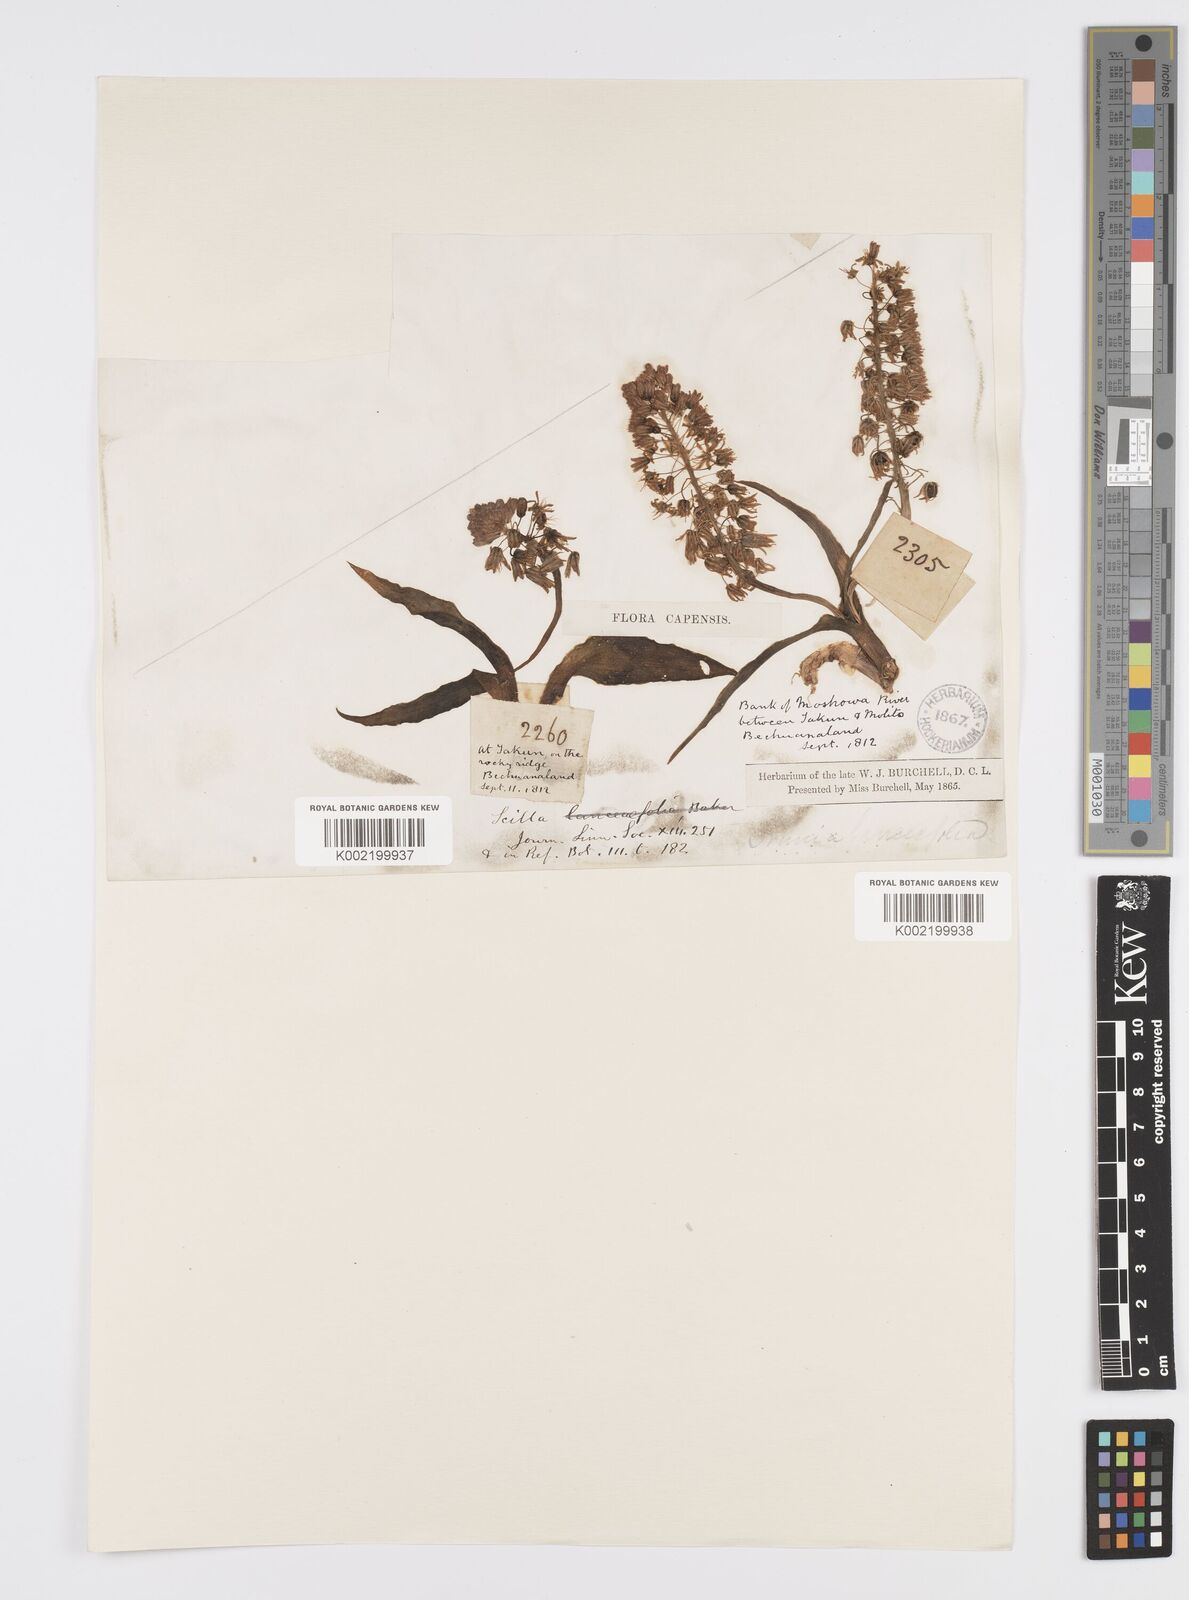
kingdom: Plantae
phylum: Tracheophyta
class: Liliopsida
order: Asparagales
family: Asparagaceae
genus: Ledebouria
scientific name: Ledebouria revoluta
